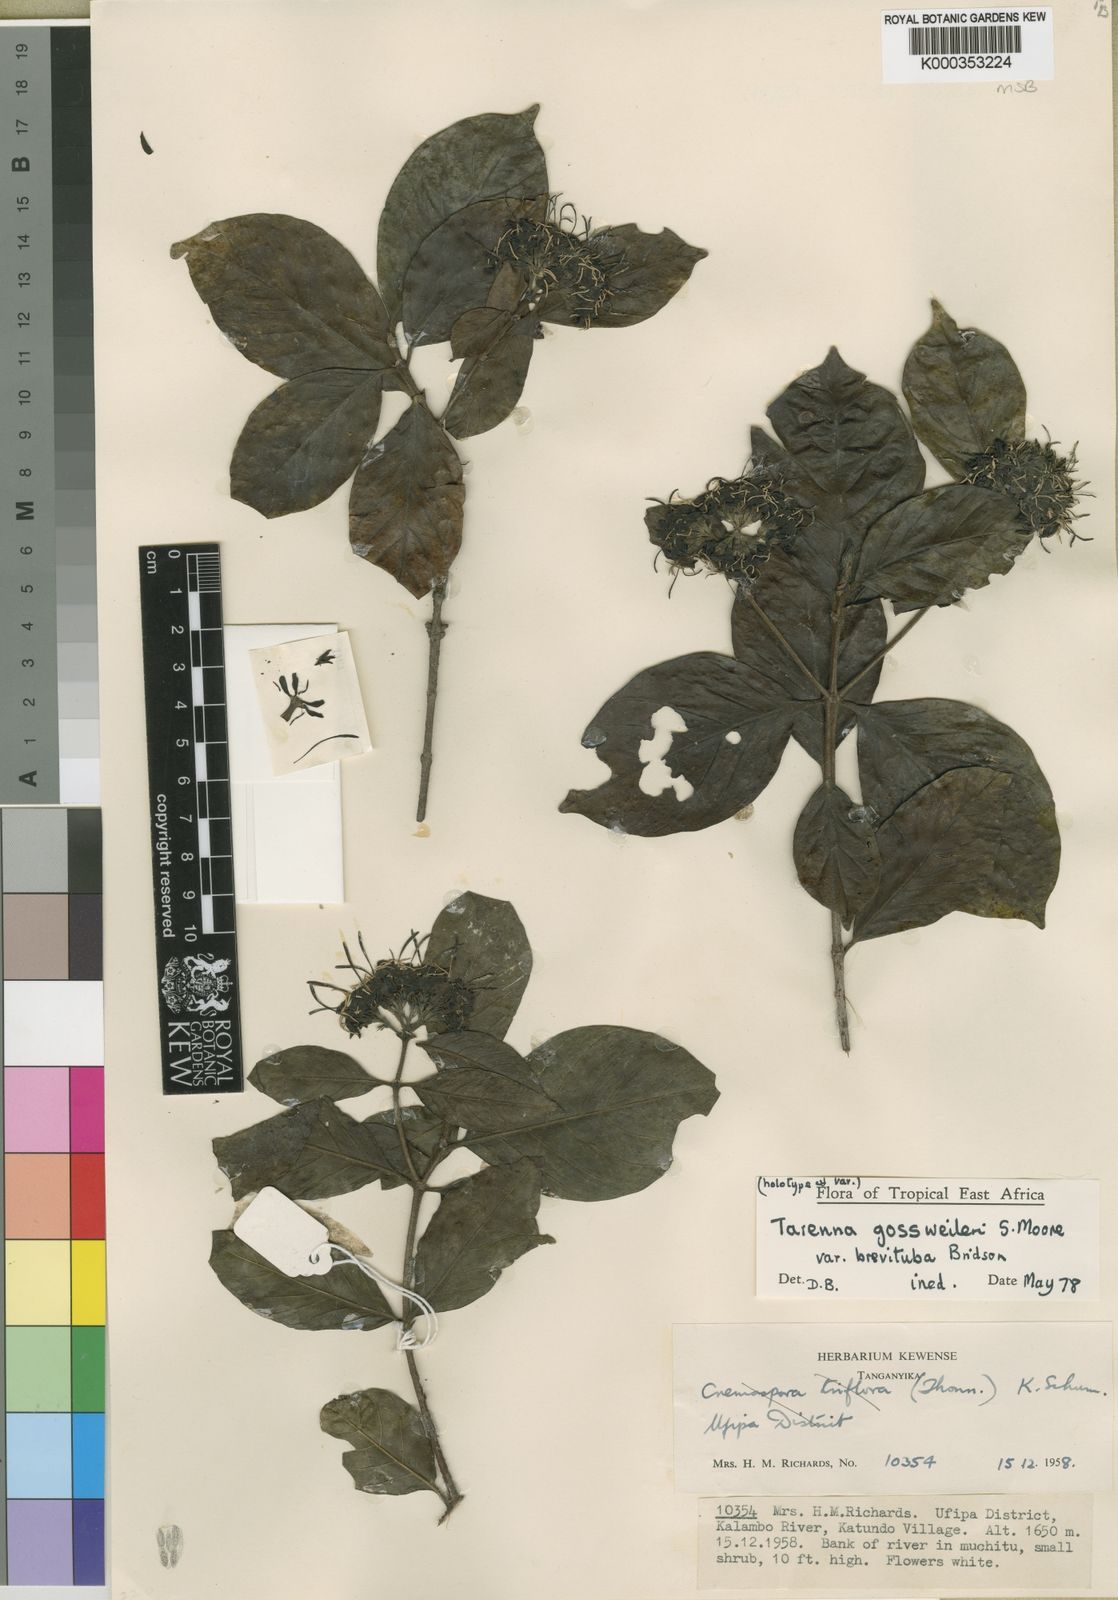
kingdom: Plantae
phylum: Tracheophyta
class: Magnoliopsida
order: Gentianales
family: Rubiaceae
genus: Tarenna
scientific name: Tarenna gossweileri
